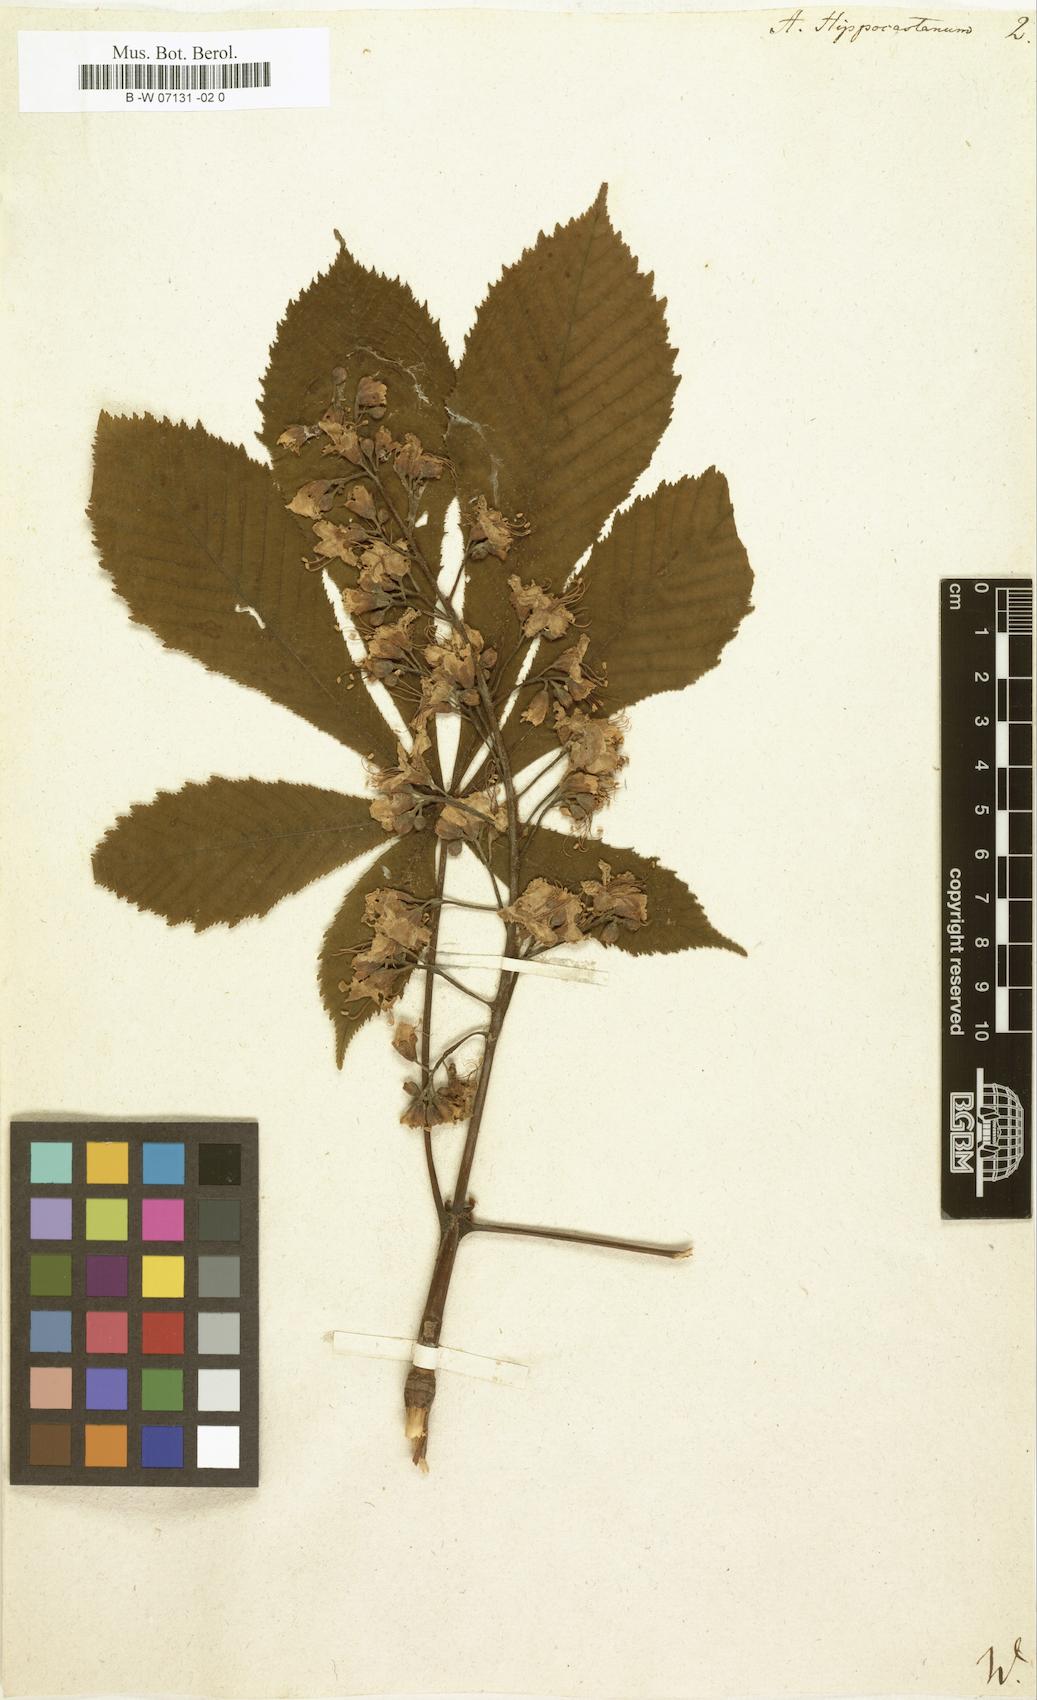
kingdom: Plantae
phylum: Tracheophyta
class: Magnoliopsida
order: Sapindales
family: Sapindaceae
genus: Aesculus
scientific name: Aesculus hippocastanum
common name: Horse-chestnut
